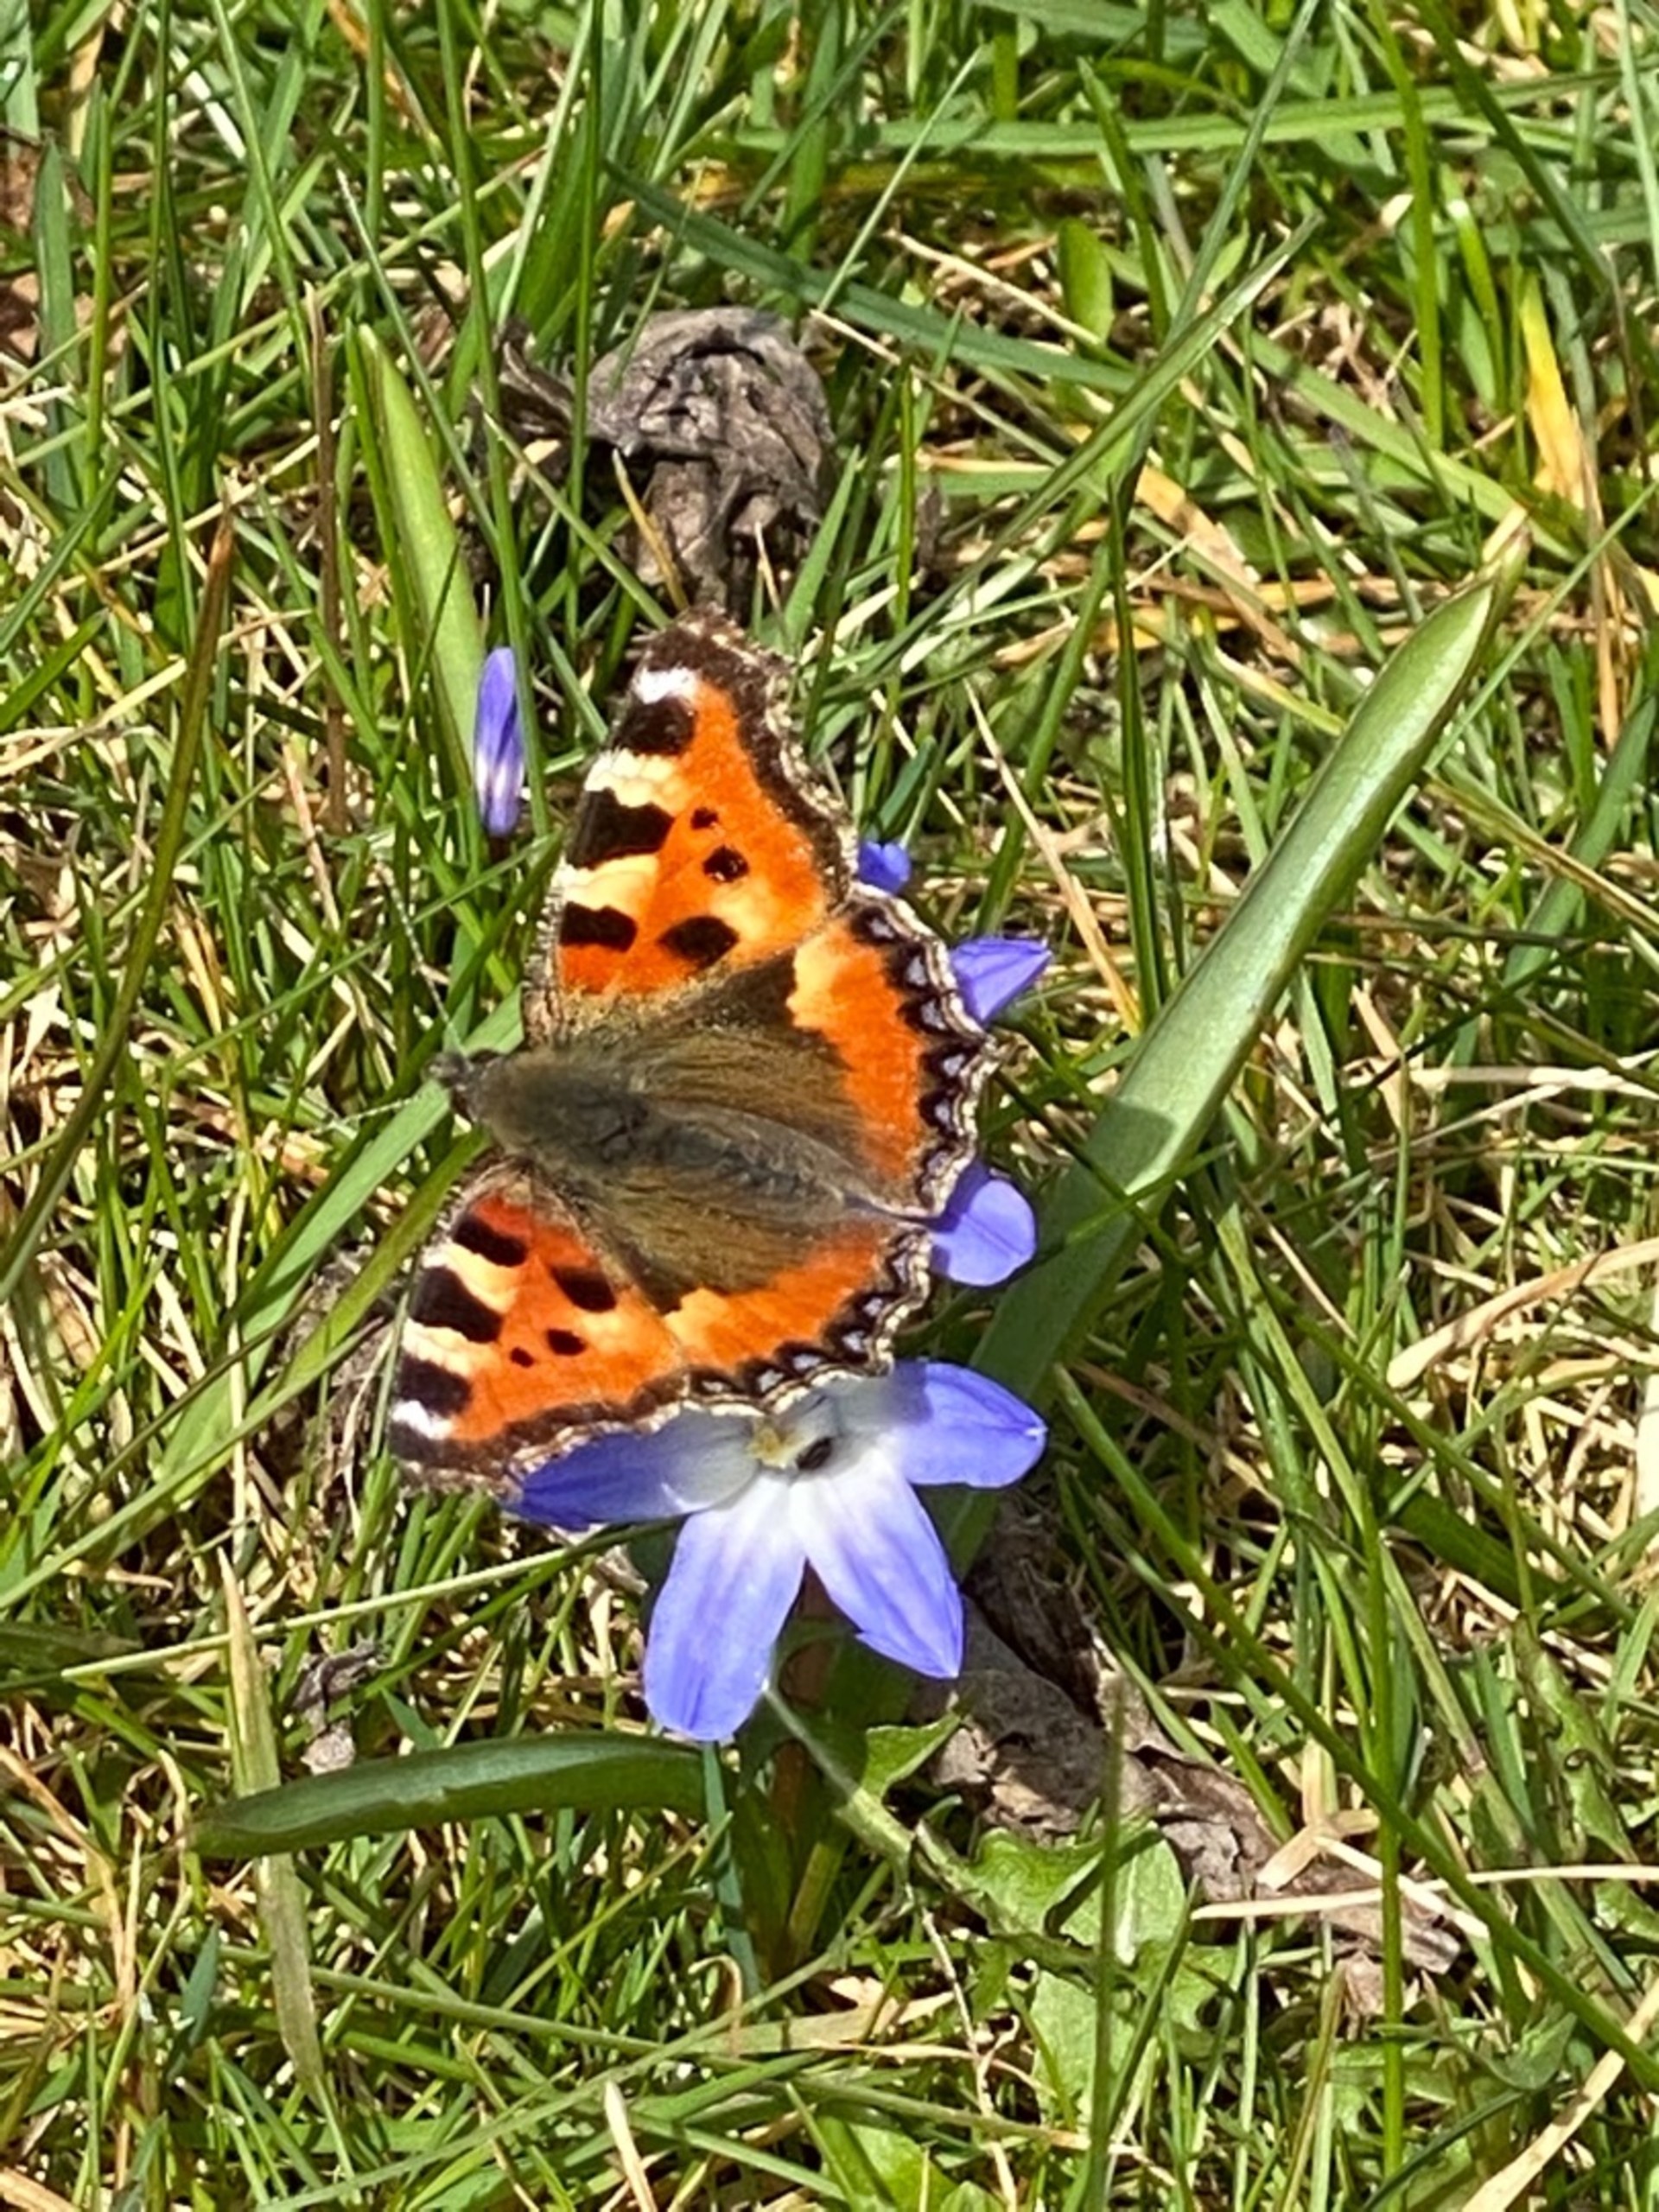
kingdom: Animalia
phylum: Arthropoda
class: Insecta
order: Lepidoptera
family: Nymphalidae
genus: Aglais
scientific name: Aglais urticae
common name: Nældens takvinge
